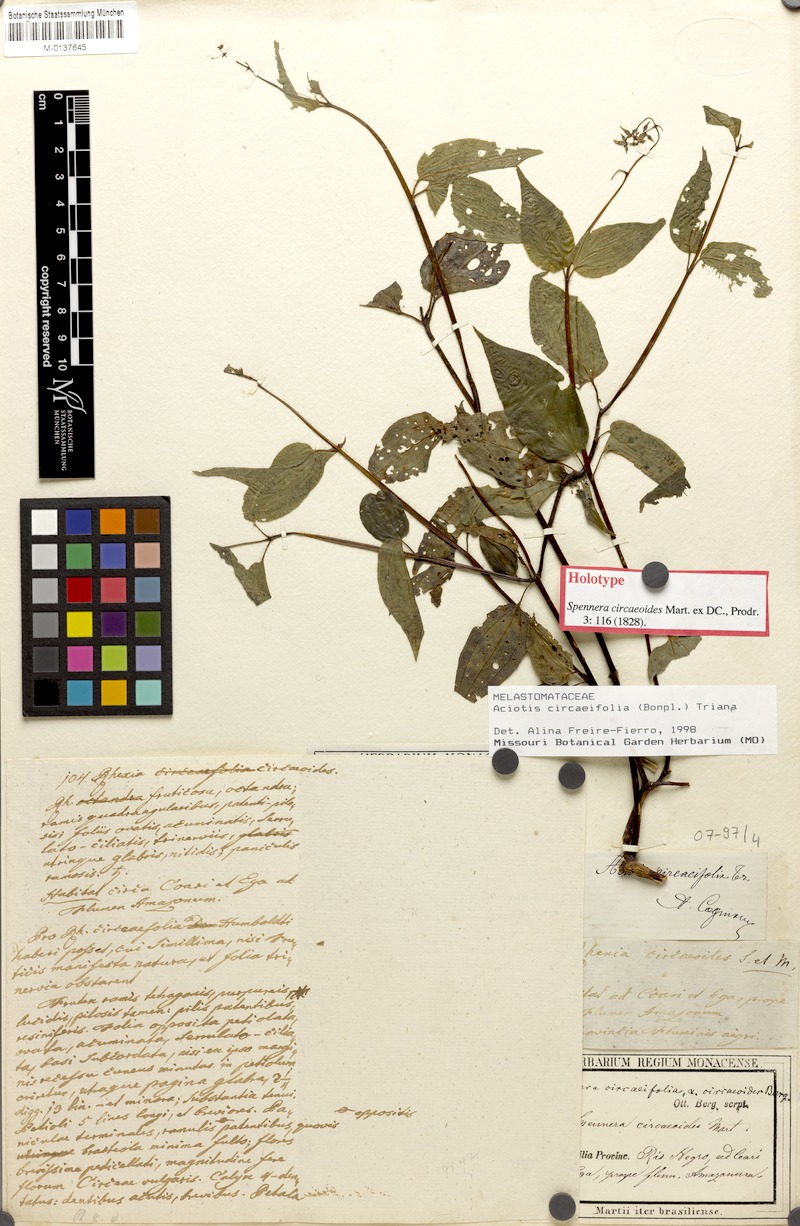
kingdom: Plantae
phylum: Tracheophyta
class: Magnoliopsida
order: Myrtales
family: Melastomataceae
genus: Aciotis
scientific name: Aciotis circaeifolia
